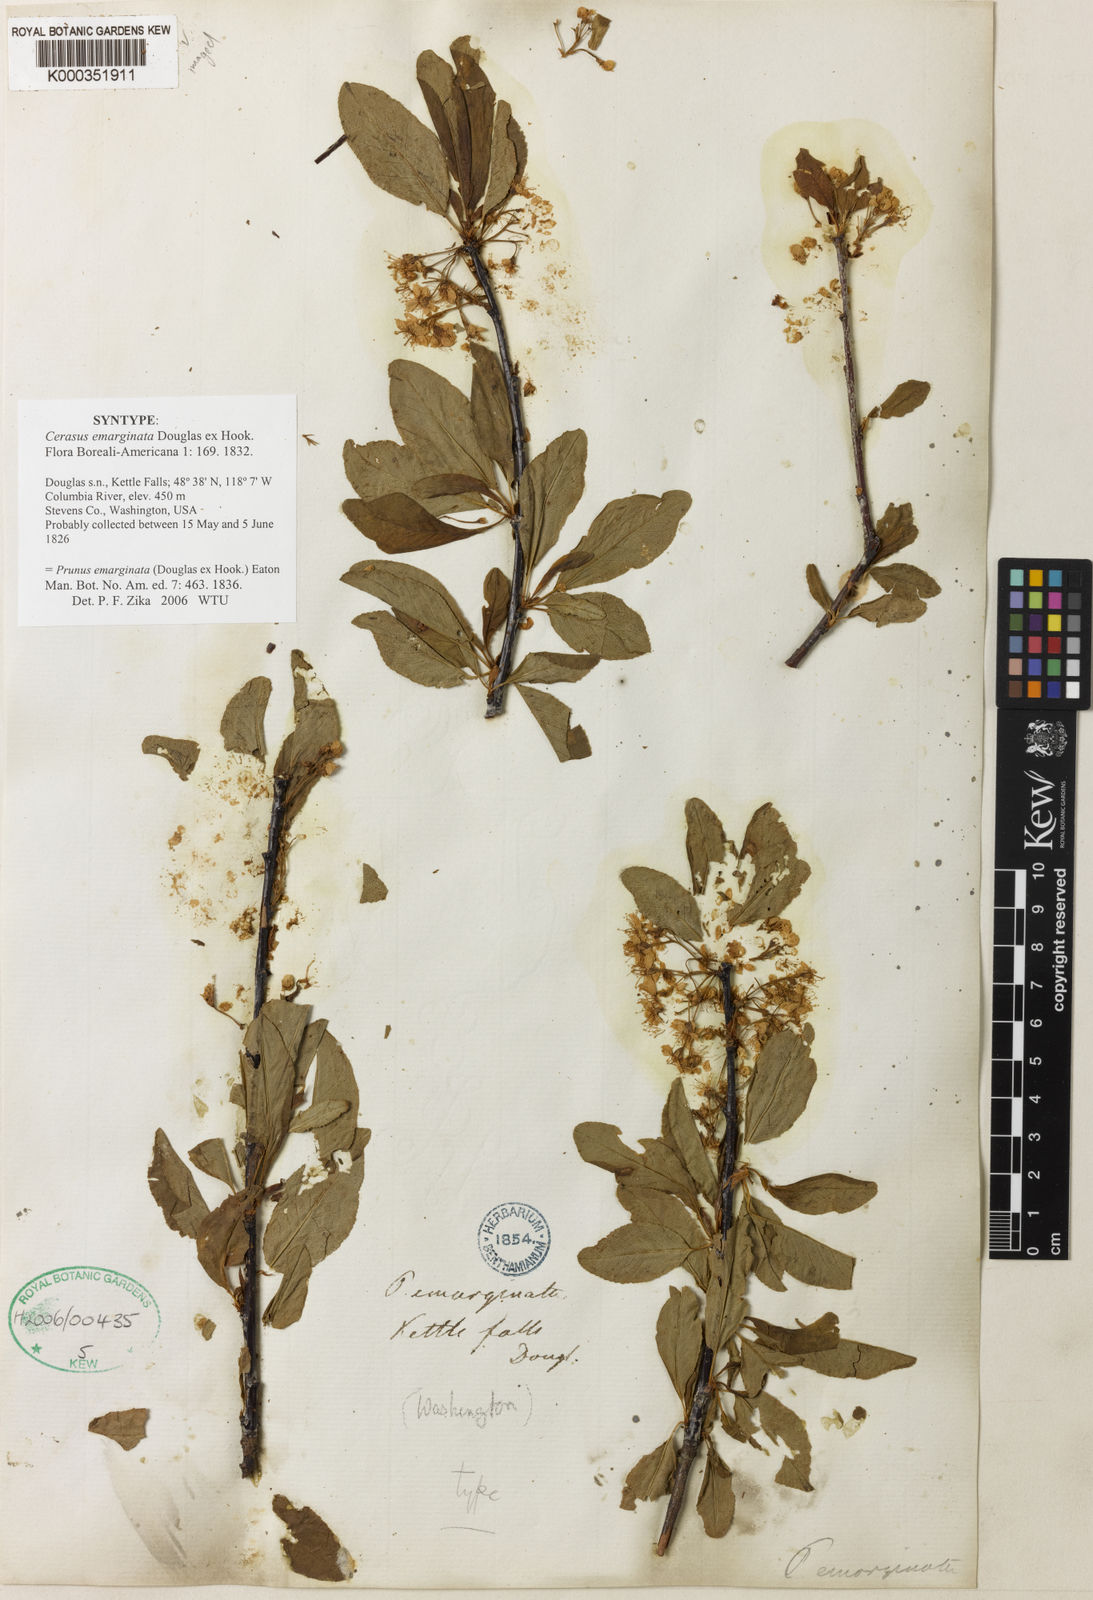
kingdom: Plantae
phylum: Tracheophyta
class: Magnoliopsida
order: Rosales
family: Rosaceae
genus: Prunus
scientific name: Prunus
